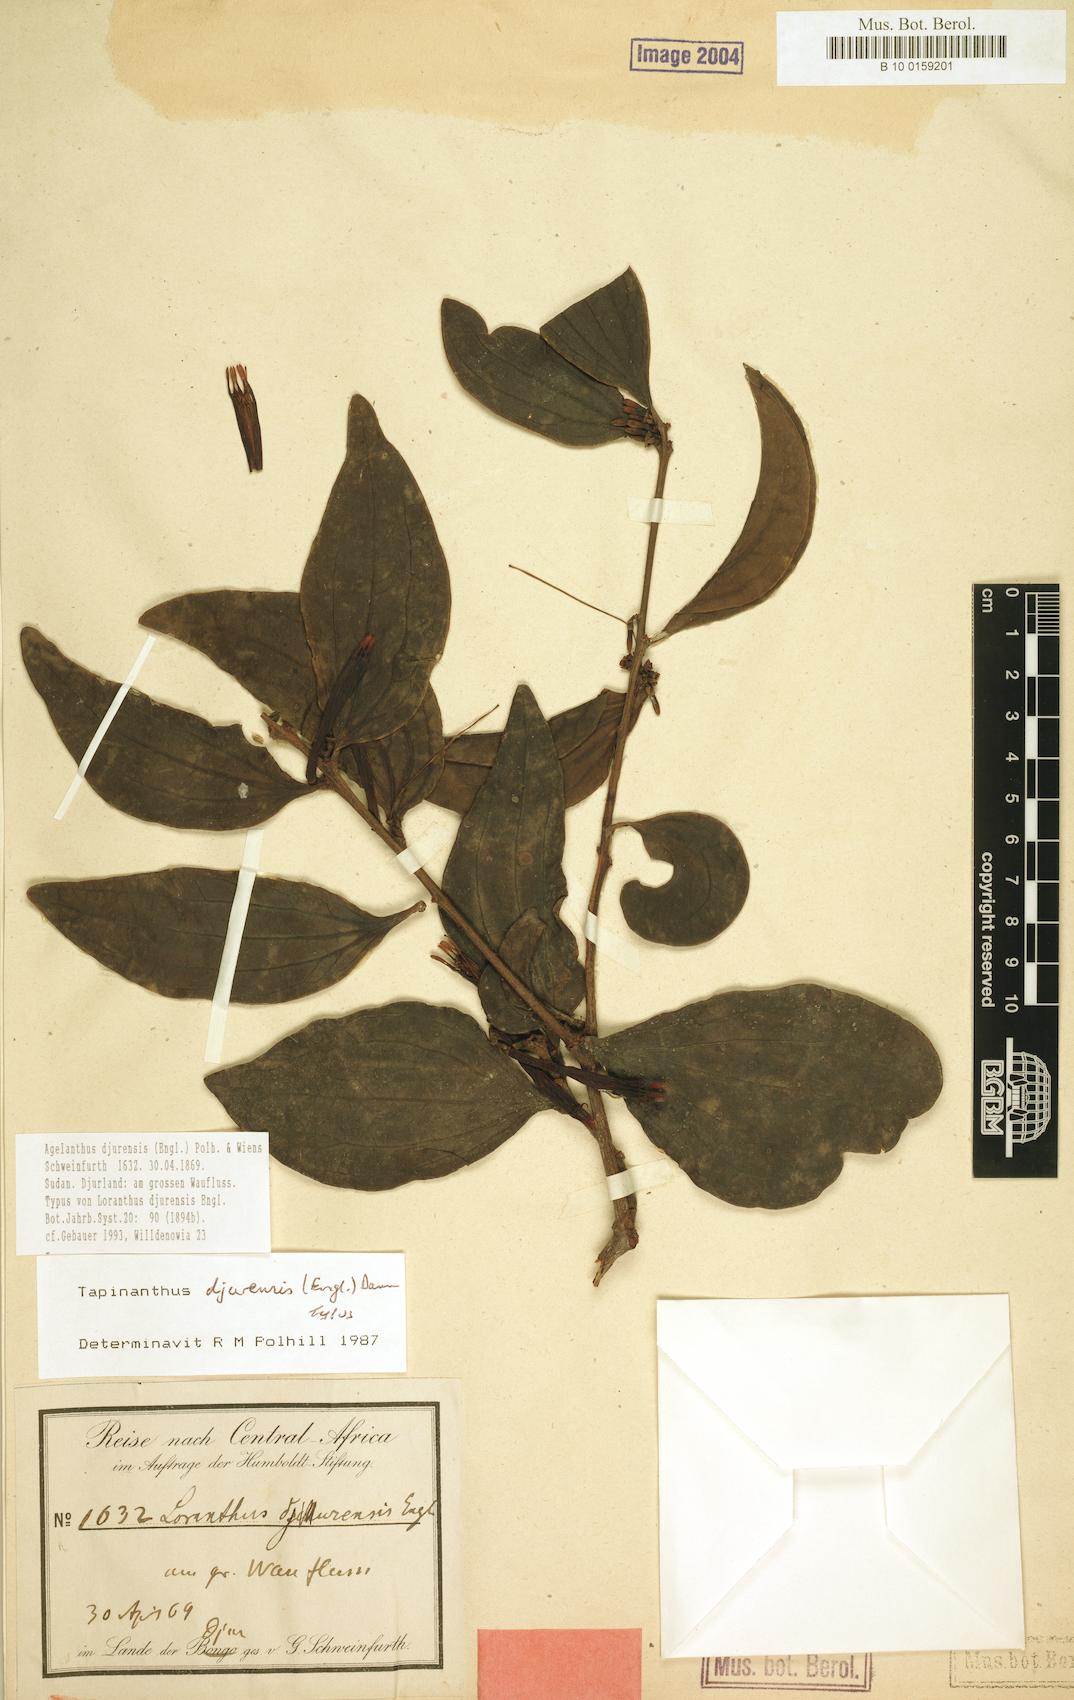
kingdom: Plantae
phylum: Tracheophyta
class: Magnoliopsida
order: Santalales
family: Loranthaceae
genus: Agelanthus
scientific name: Agelanthus djurensis
